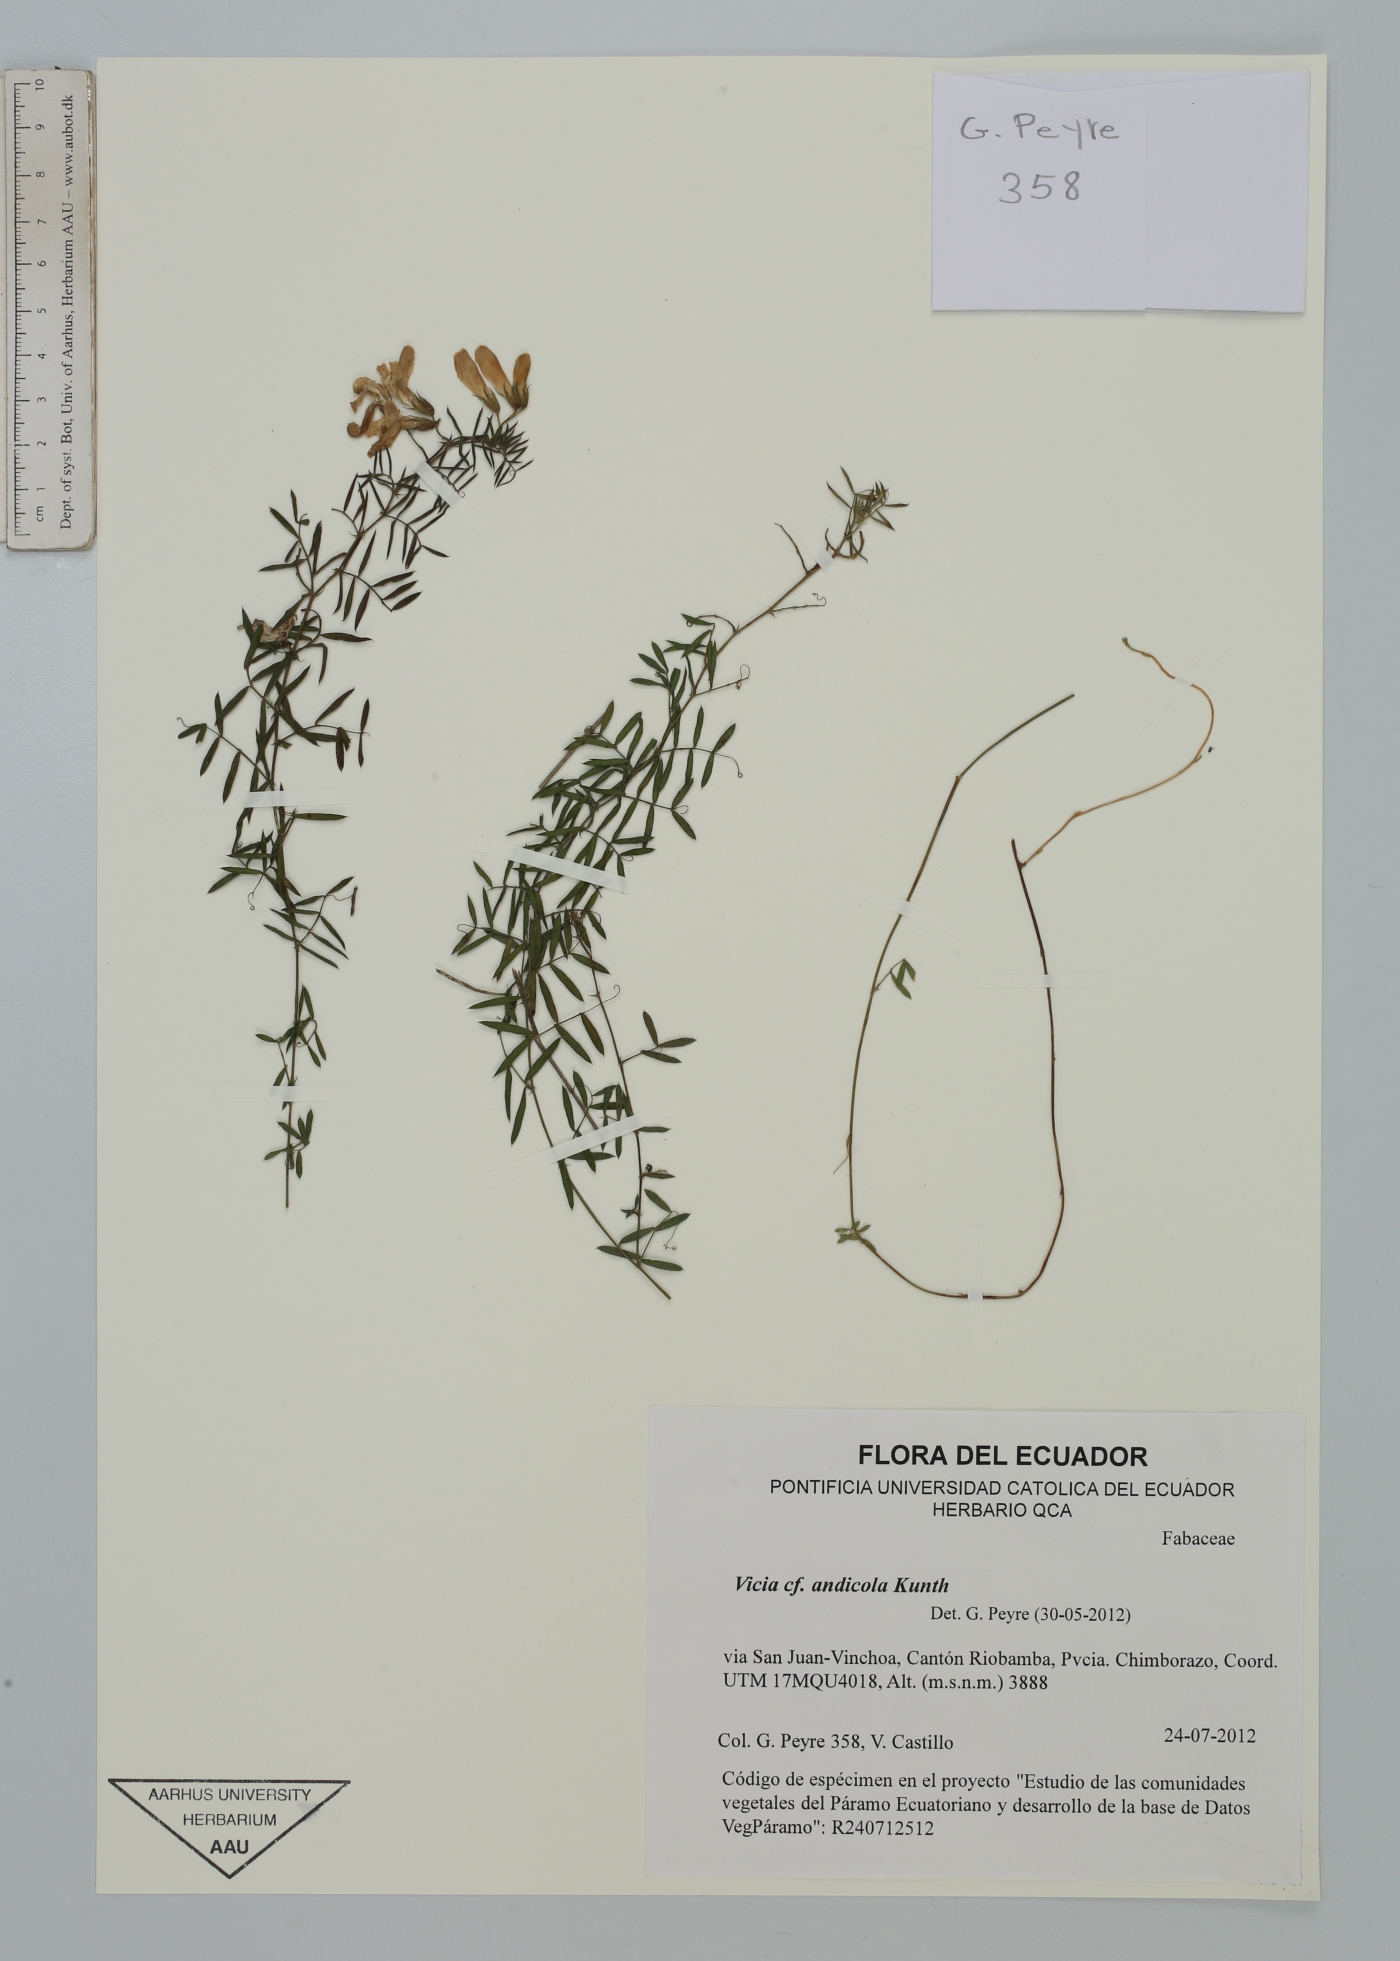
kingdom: Plantae
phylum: Tracheophyta
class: Magnoliopsida
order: Fabales
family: Fabaceae
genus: Vicia
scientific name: Vicia andicola
